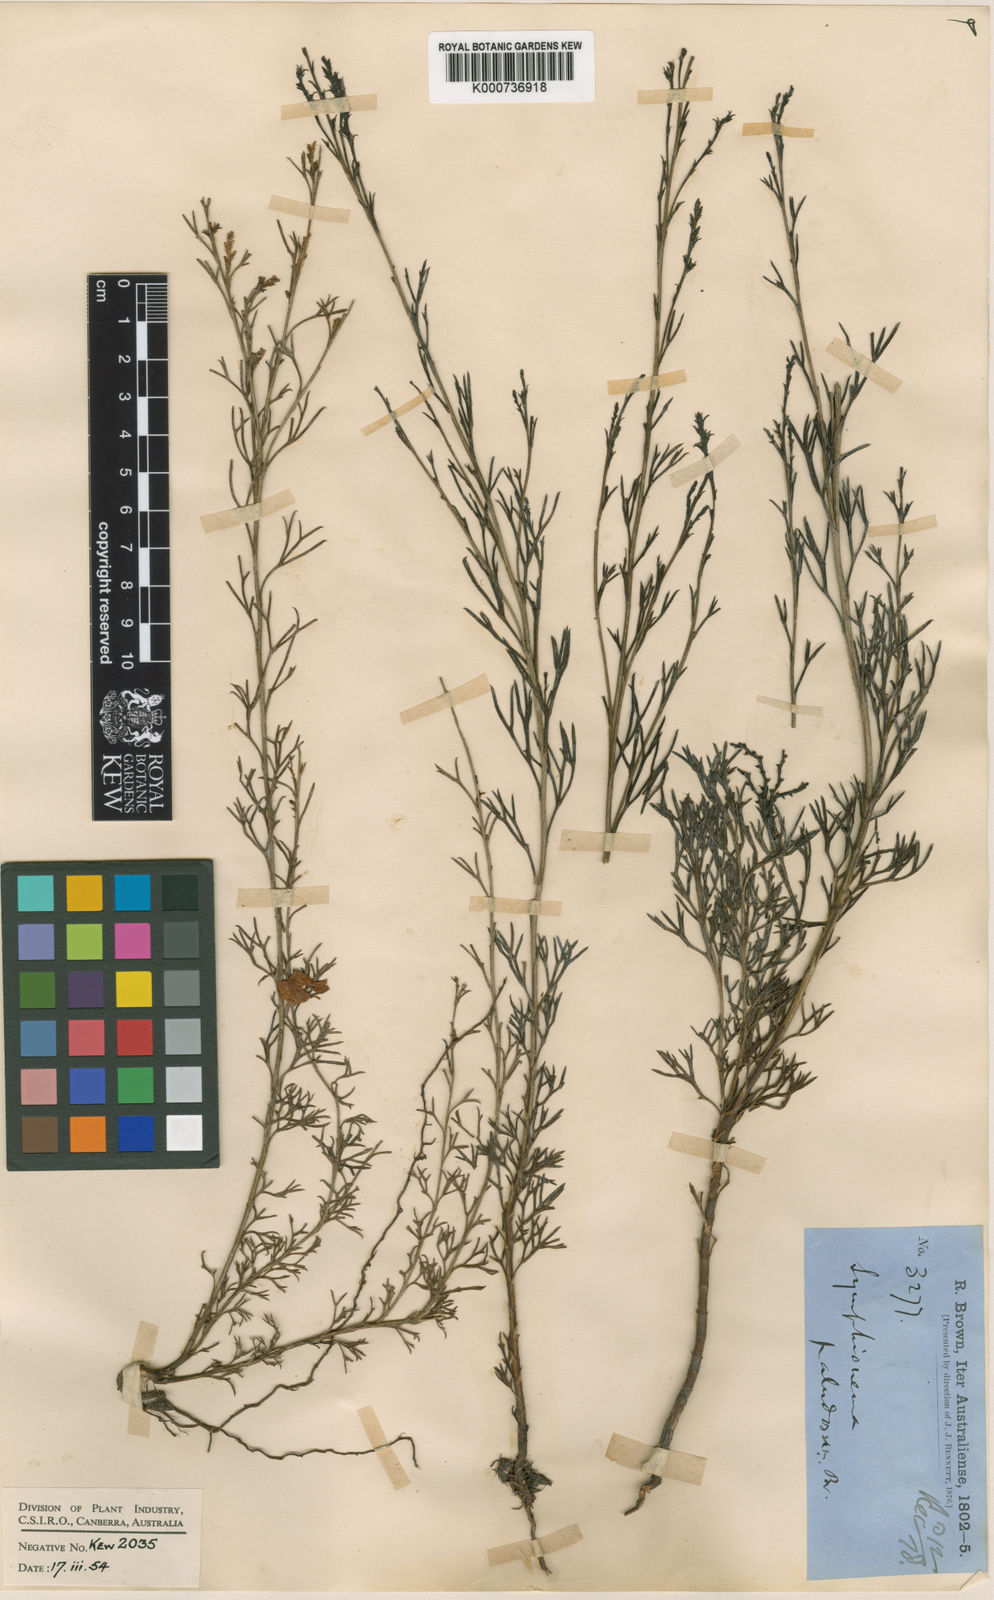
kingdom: Plantae
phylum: Tracheophyta
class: Magnoliopsida
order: Proteales
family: Proteaceae
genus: Symphionema
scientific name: Symphionema paludosum
